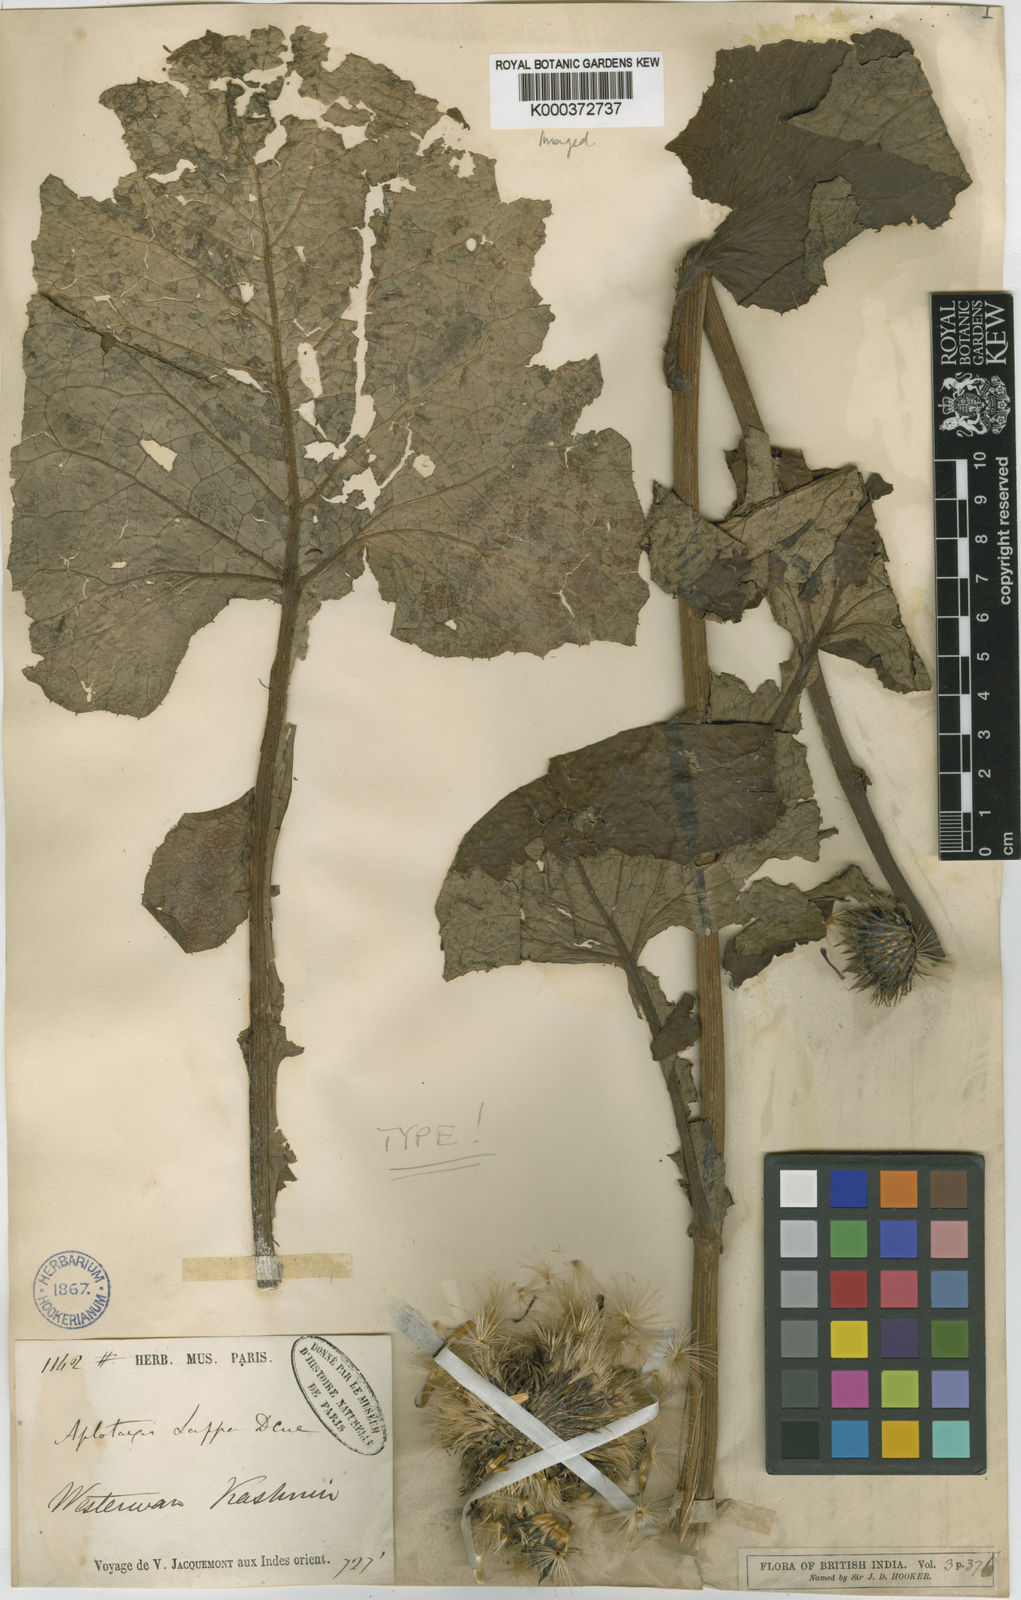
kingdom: Plantae
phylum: Tracheophyta
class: Magnoliopsida
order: Asterales
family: Asteraceae
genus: Dolomiaea
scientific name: Dolomiaea costus
